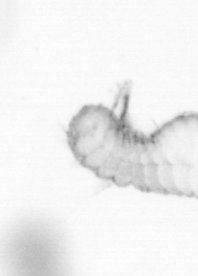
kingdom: Animalia
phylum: Annelida
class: Polychaeta
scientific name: Polychaeta
